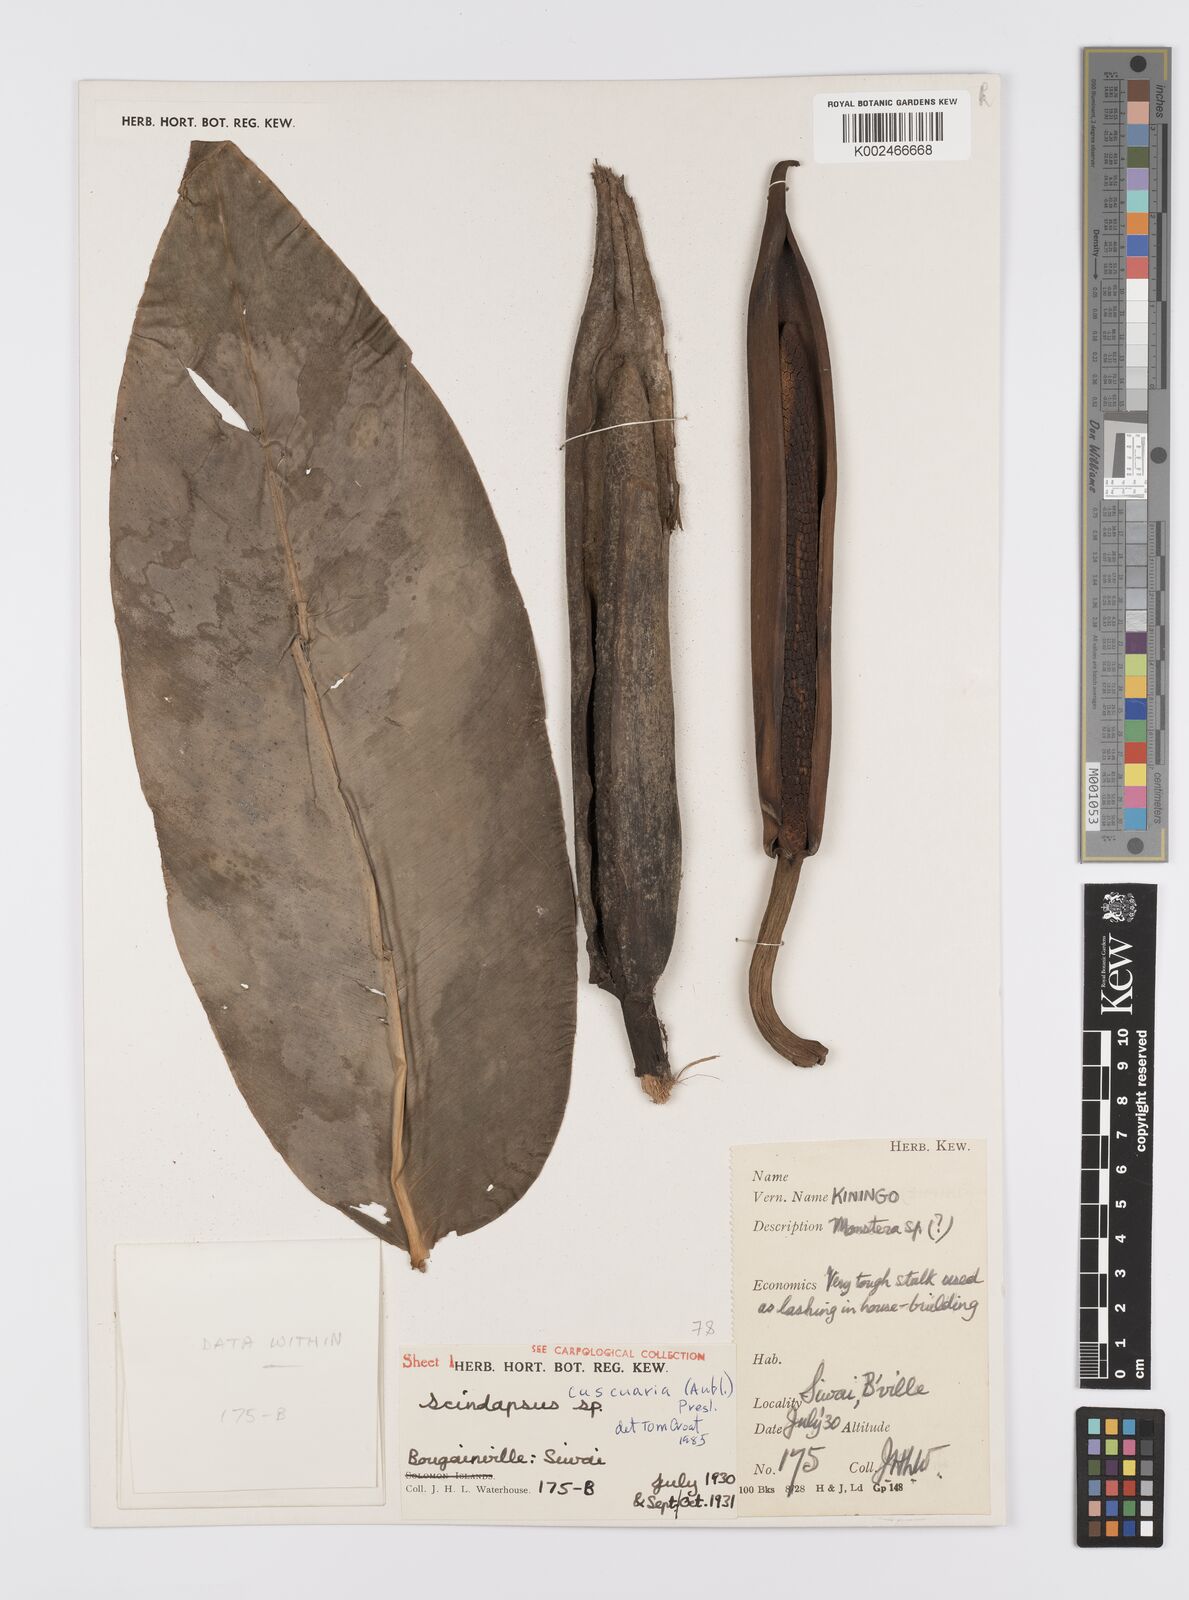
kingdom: Plantae
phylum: Tracheophyta
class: Liliopsida
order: Alismatales
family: Araceae
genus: Scindapsus
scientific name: Scindapsus cuscuaria
